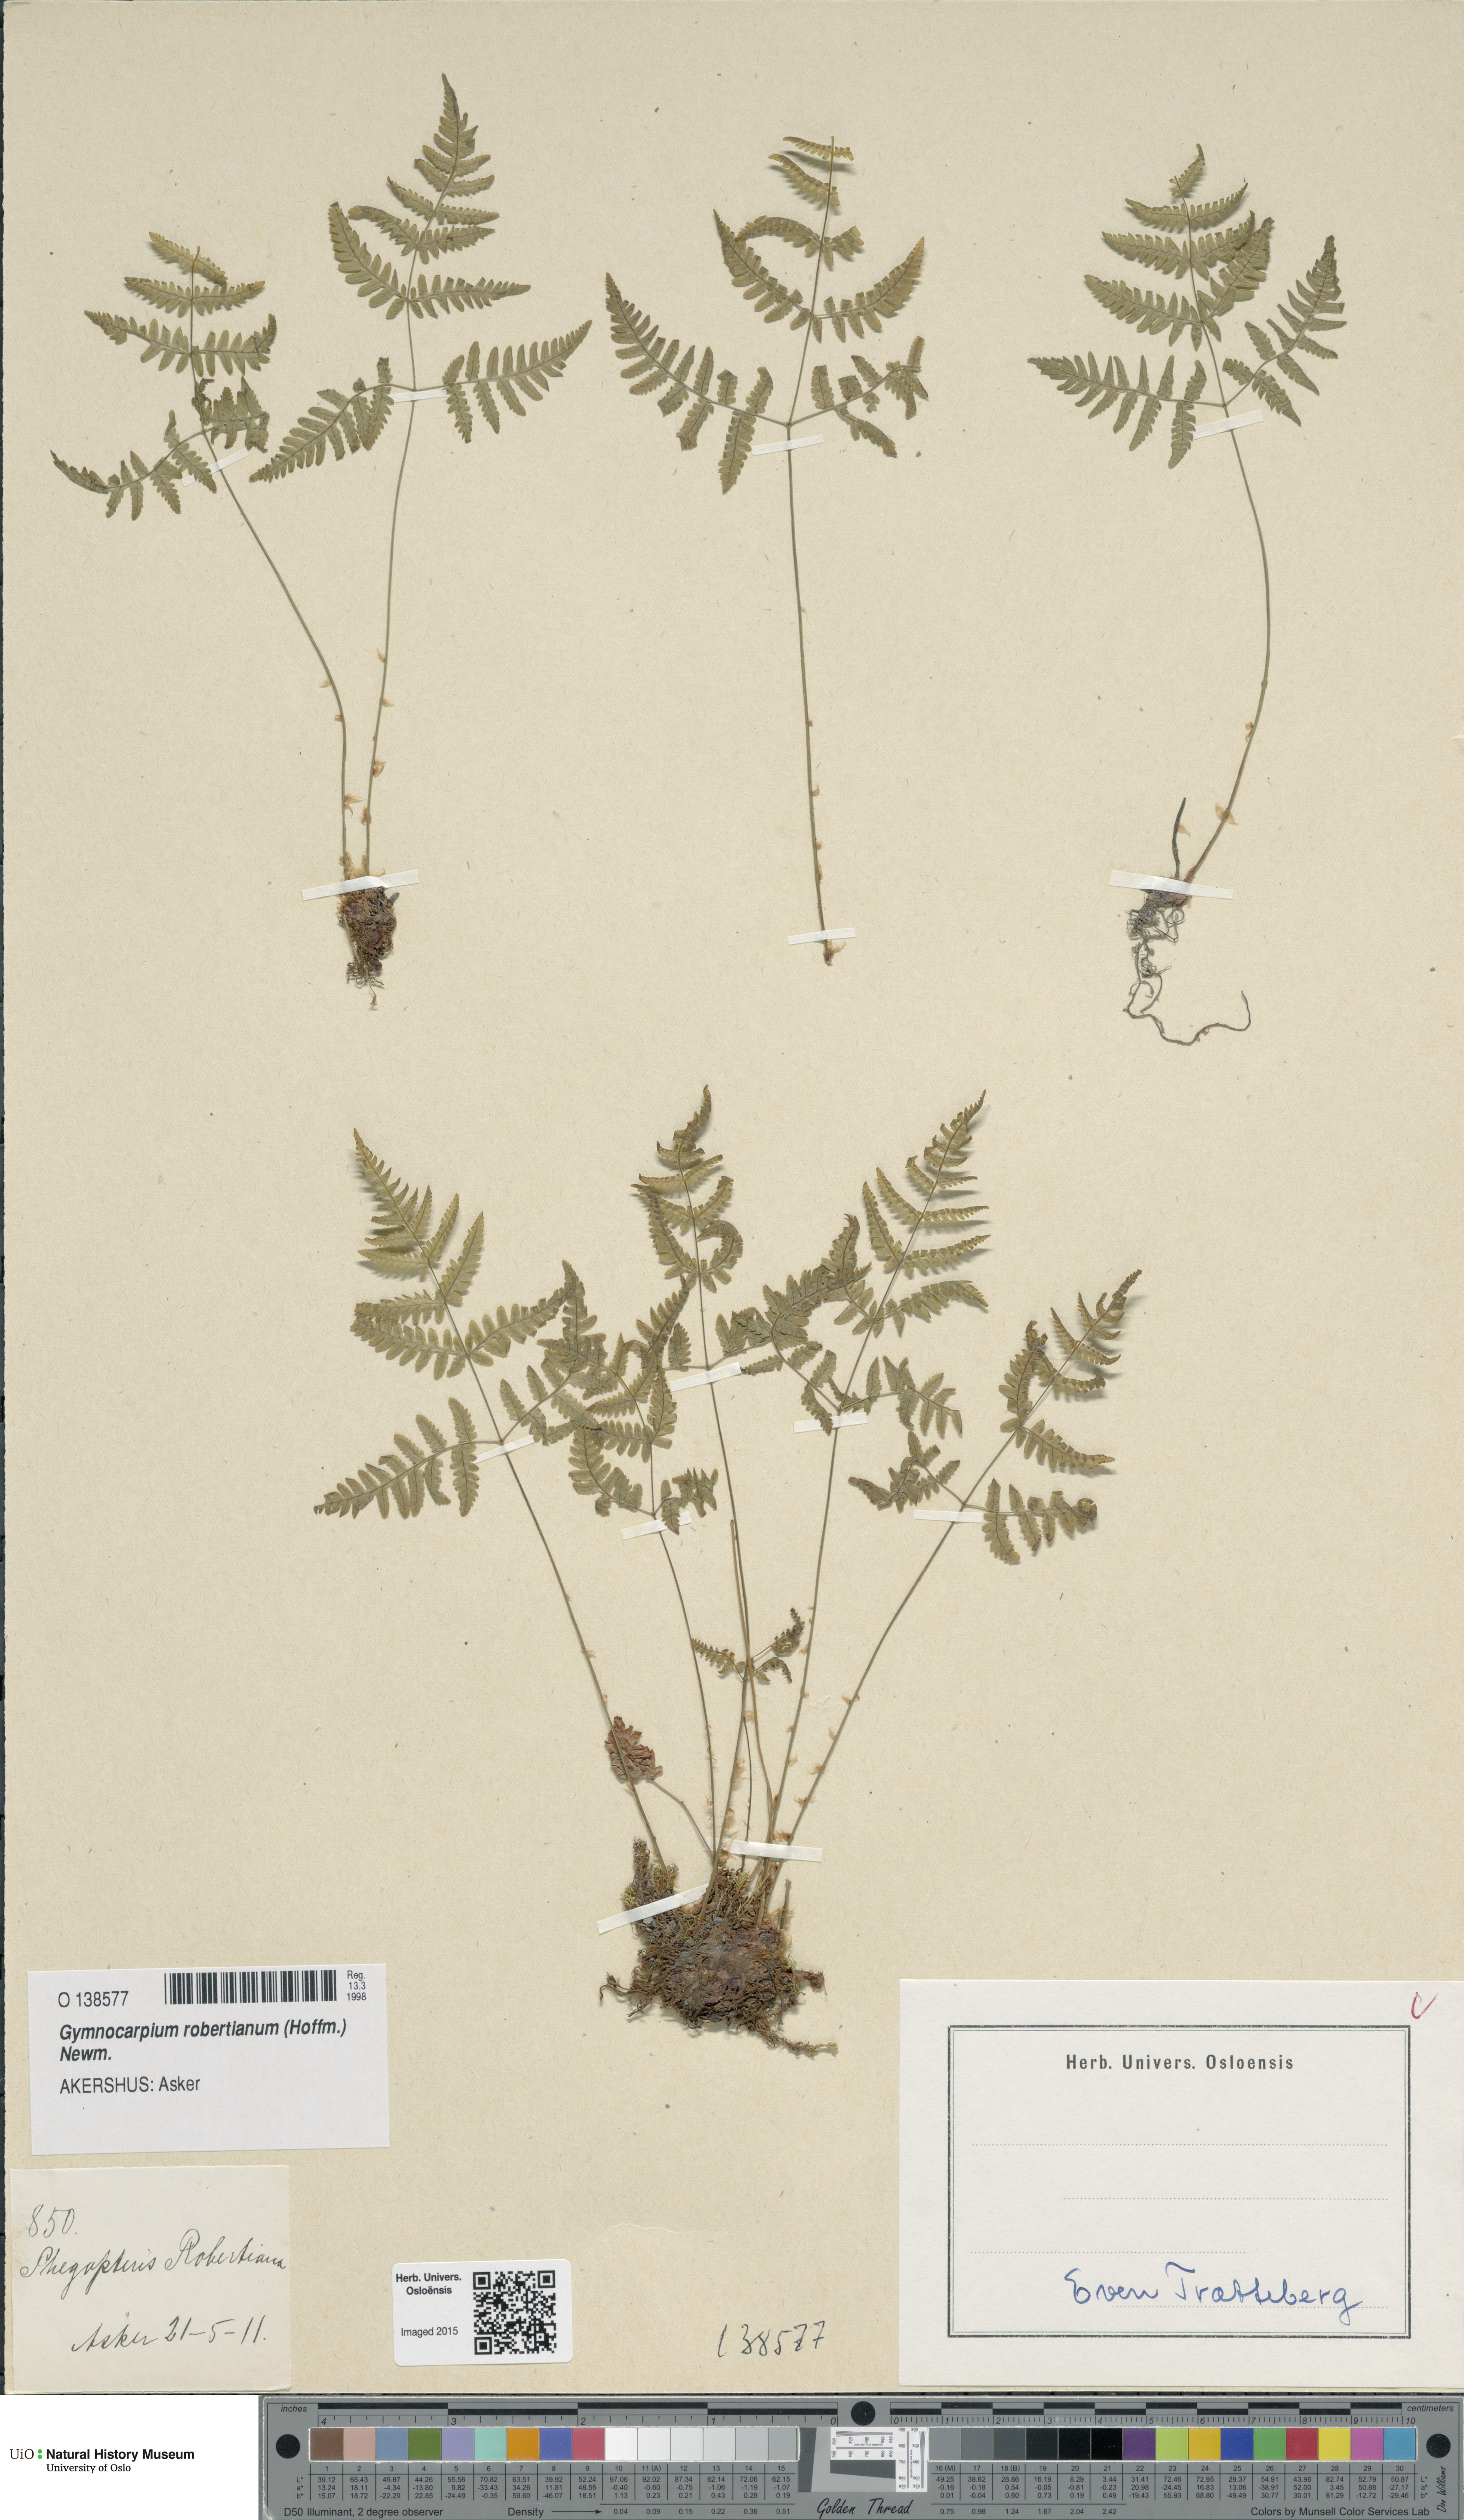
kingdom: Plantae
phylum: Tracheophyta
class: Polypodiopsida
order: Polypodiales
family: Cystopteridaceae
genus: Gymnocarpium
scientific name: Gymnocarpium robertianum
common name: Limestone fern
